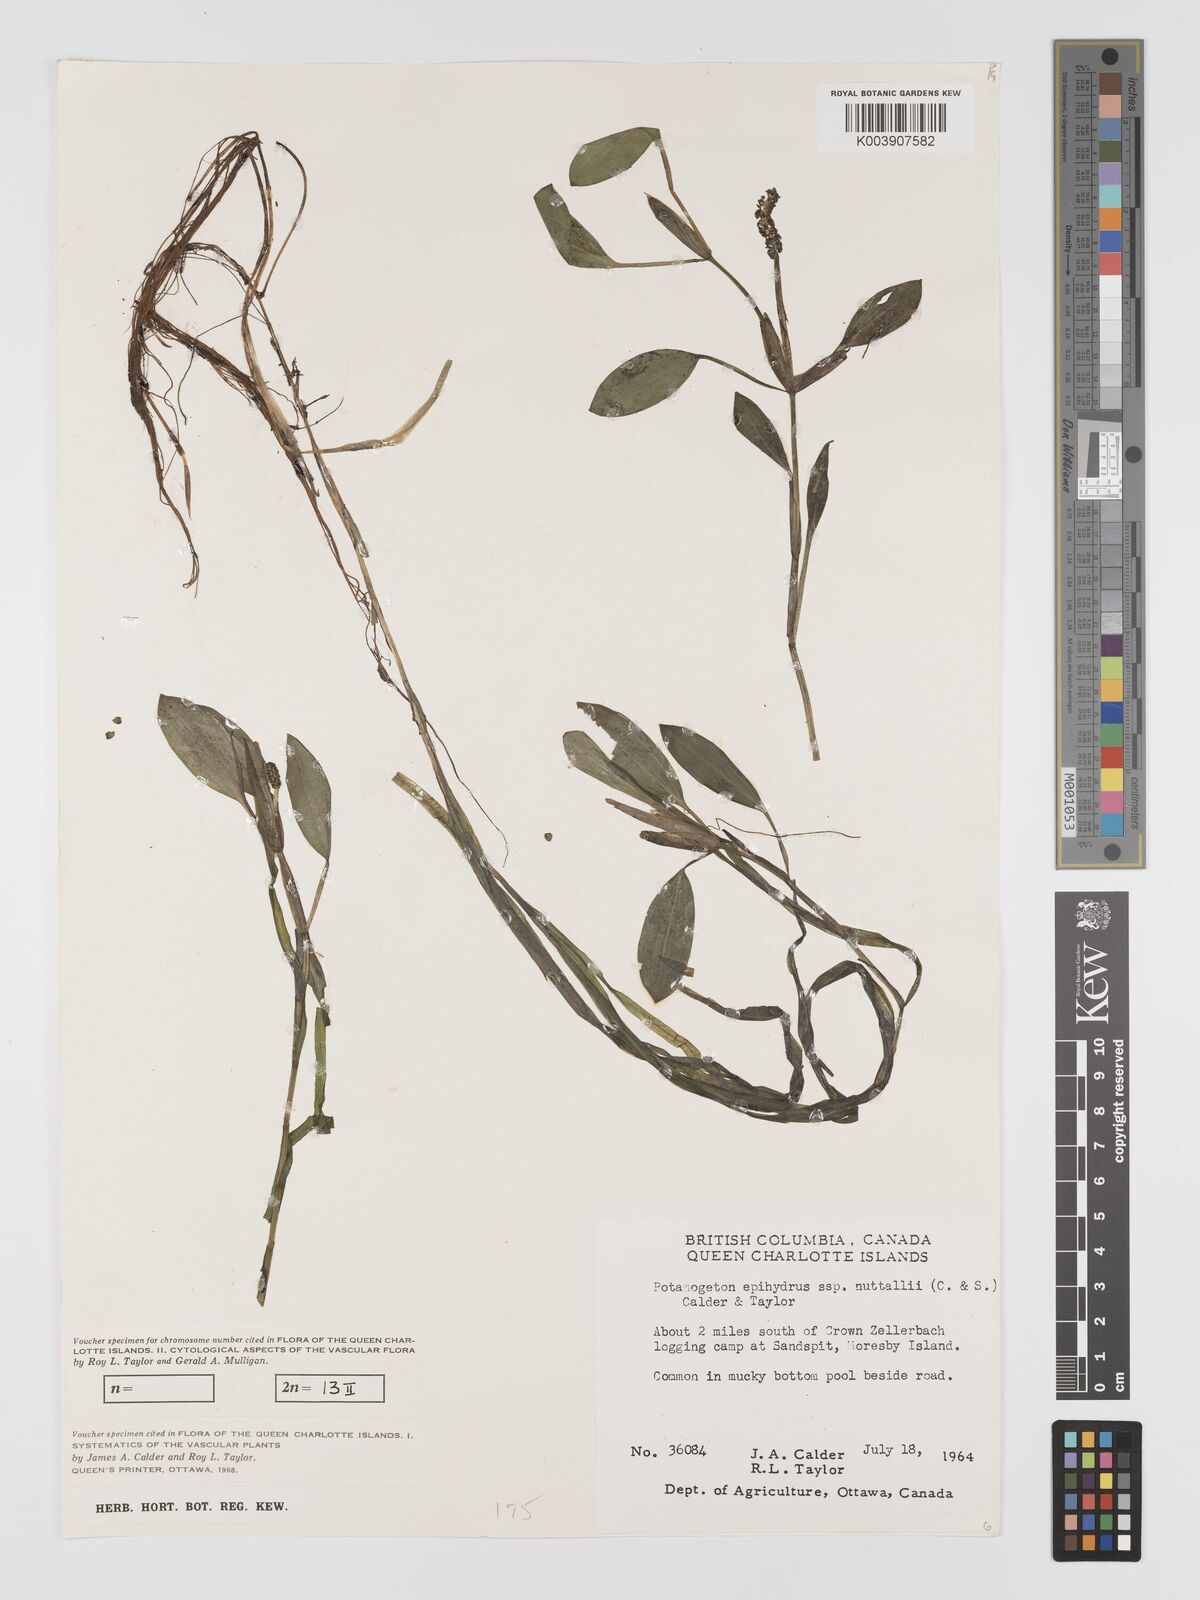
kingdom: Plantae
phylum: Tracheophyta
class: Liliopsida
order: Alismatales
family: Potamogetonaceae
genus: Potamogeton
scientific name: Potamogeton epihydrus
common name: American pondweed
